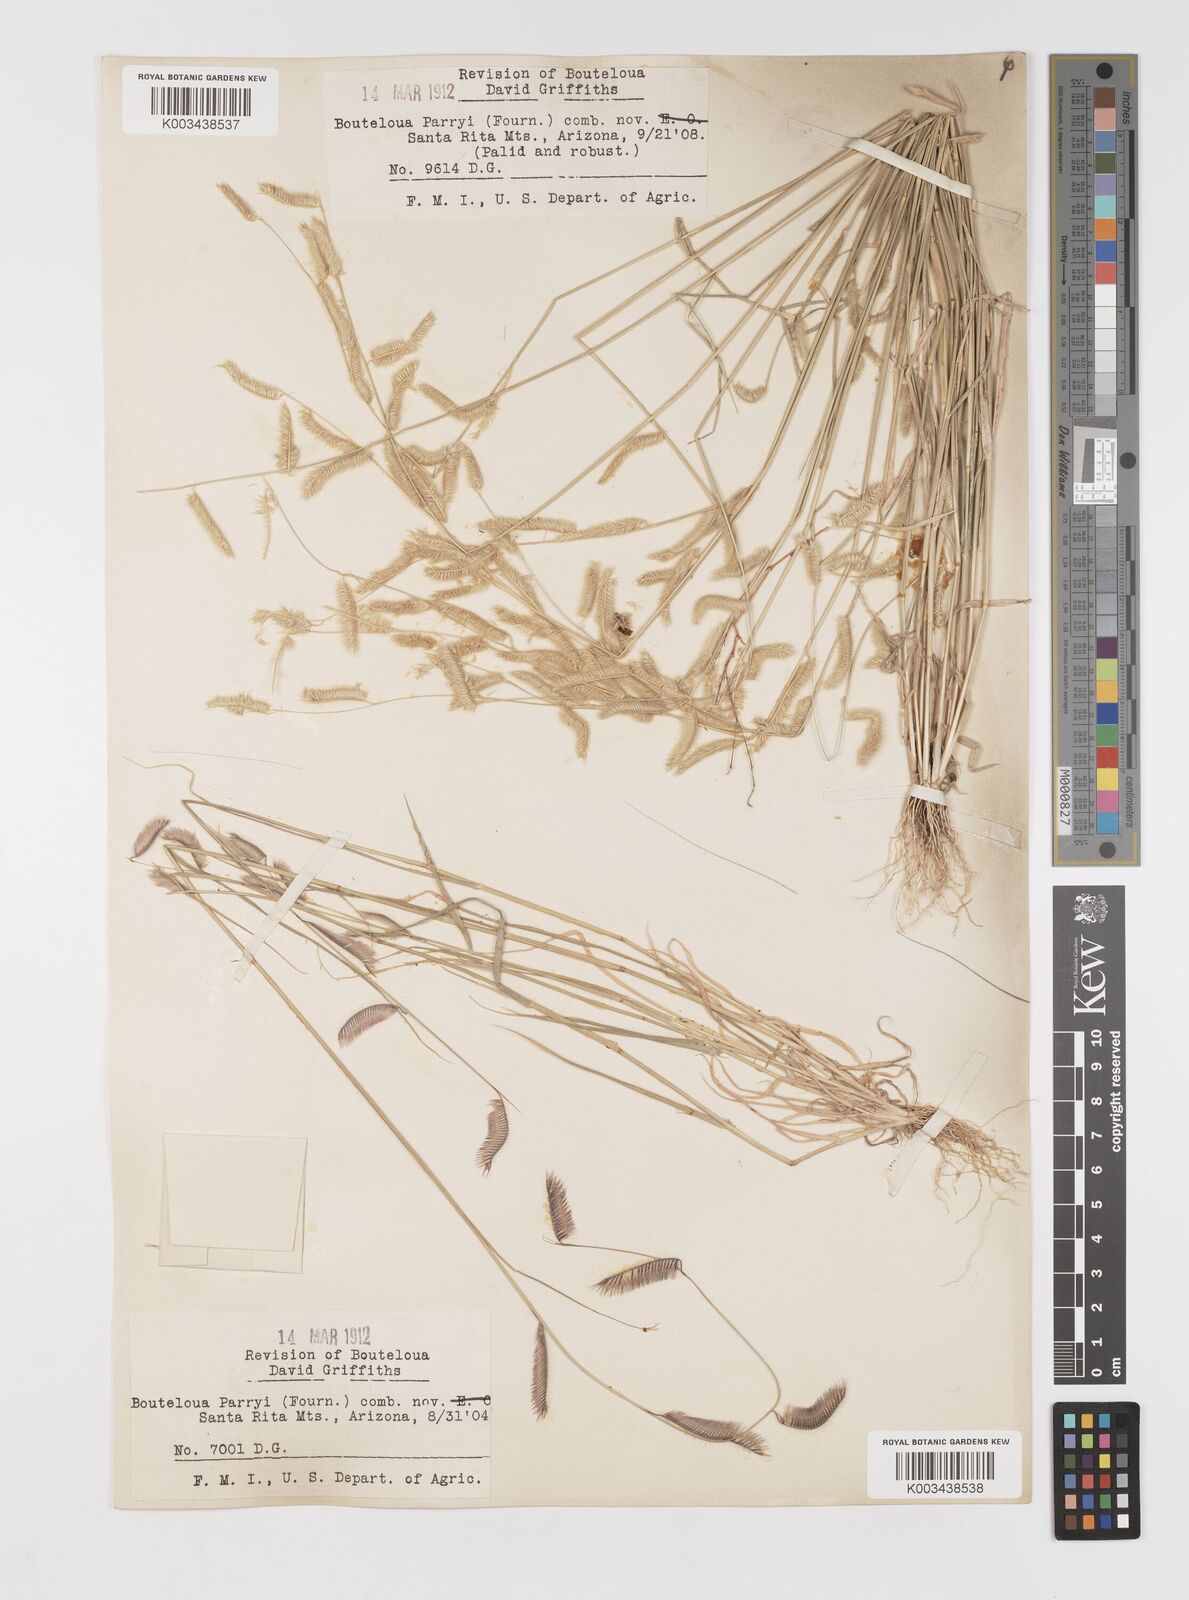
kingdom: Plantae
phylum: Tracheophyta
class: Liliopsida
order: Poales
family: Poaceae
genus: Bouteloua
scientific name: Bouteloua parryi
